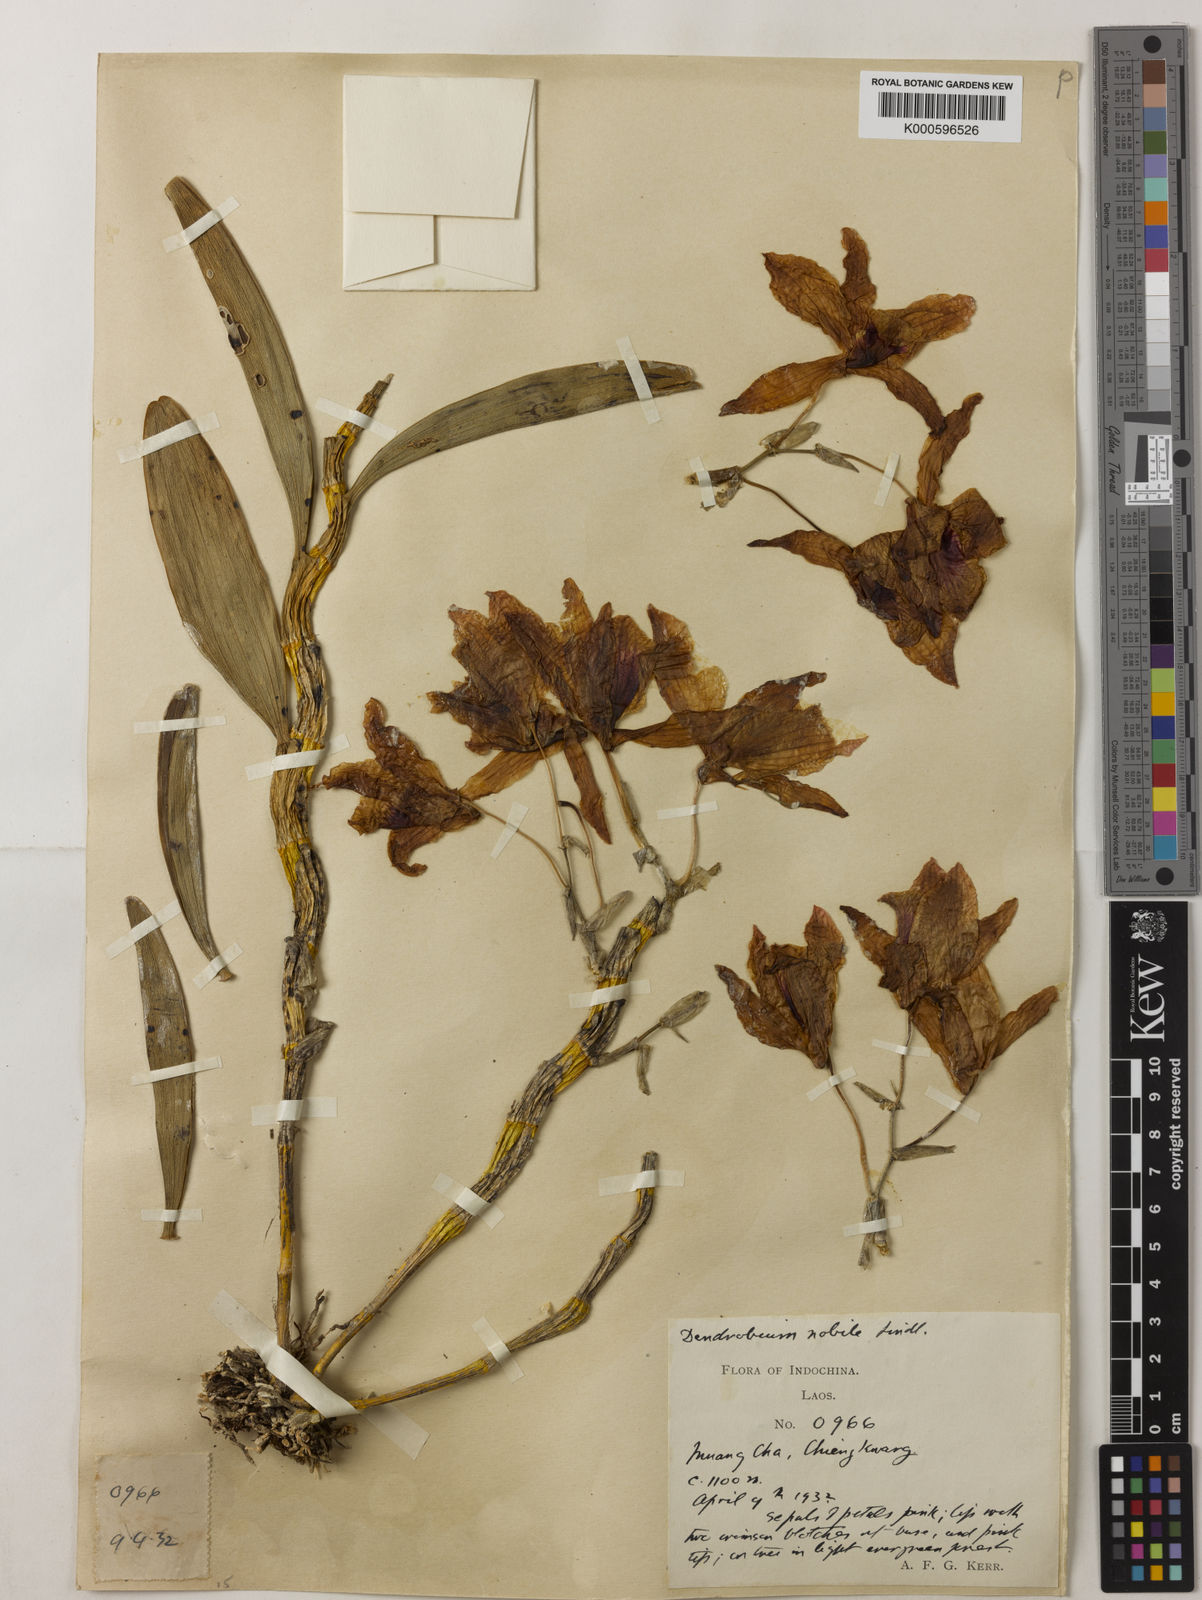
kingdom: Plantae
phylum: Tracheophyta
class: Liliopsida
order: Asparagales
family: Orchidaceae
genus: Dendrobium
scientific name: Dendrobium nobile
